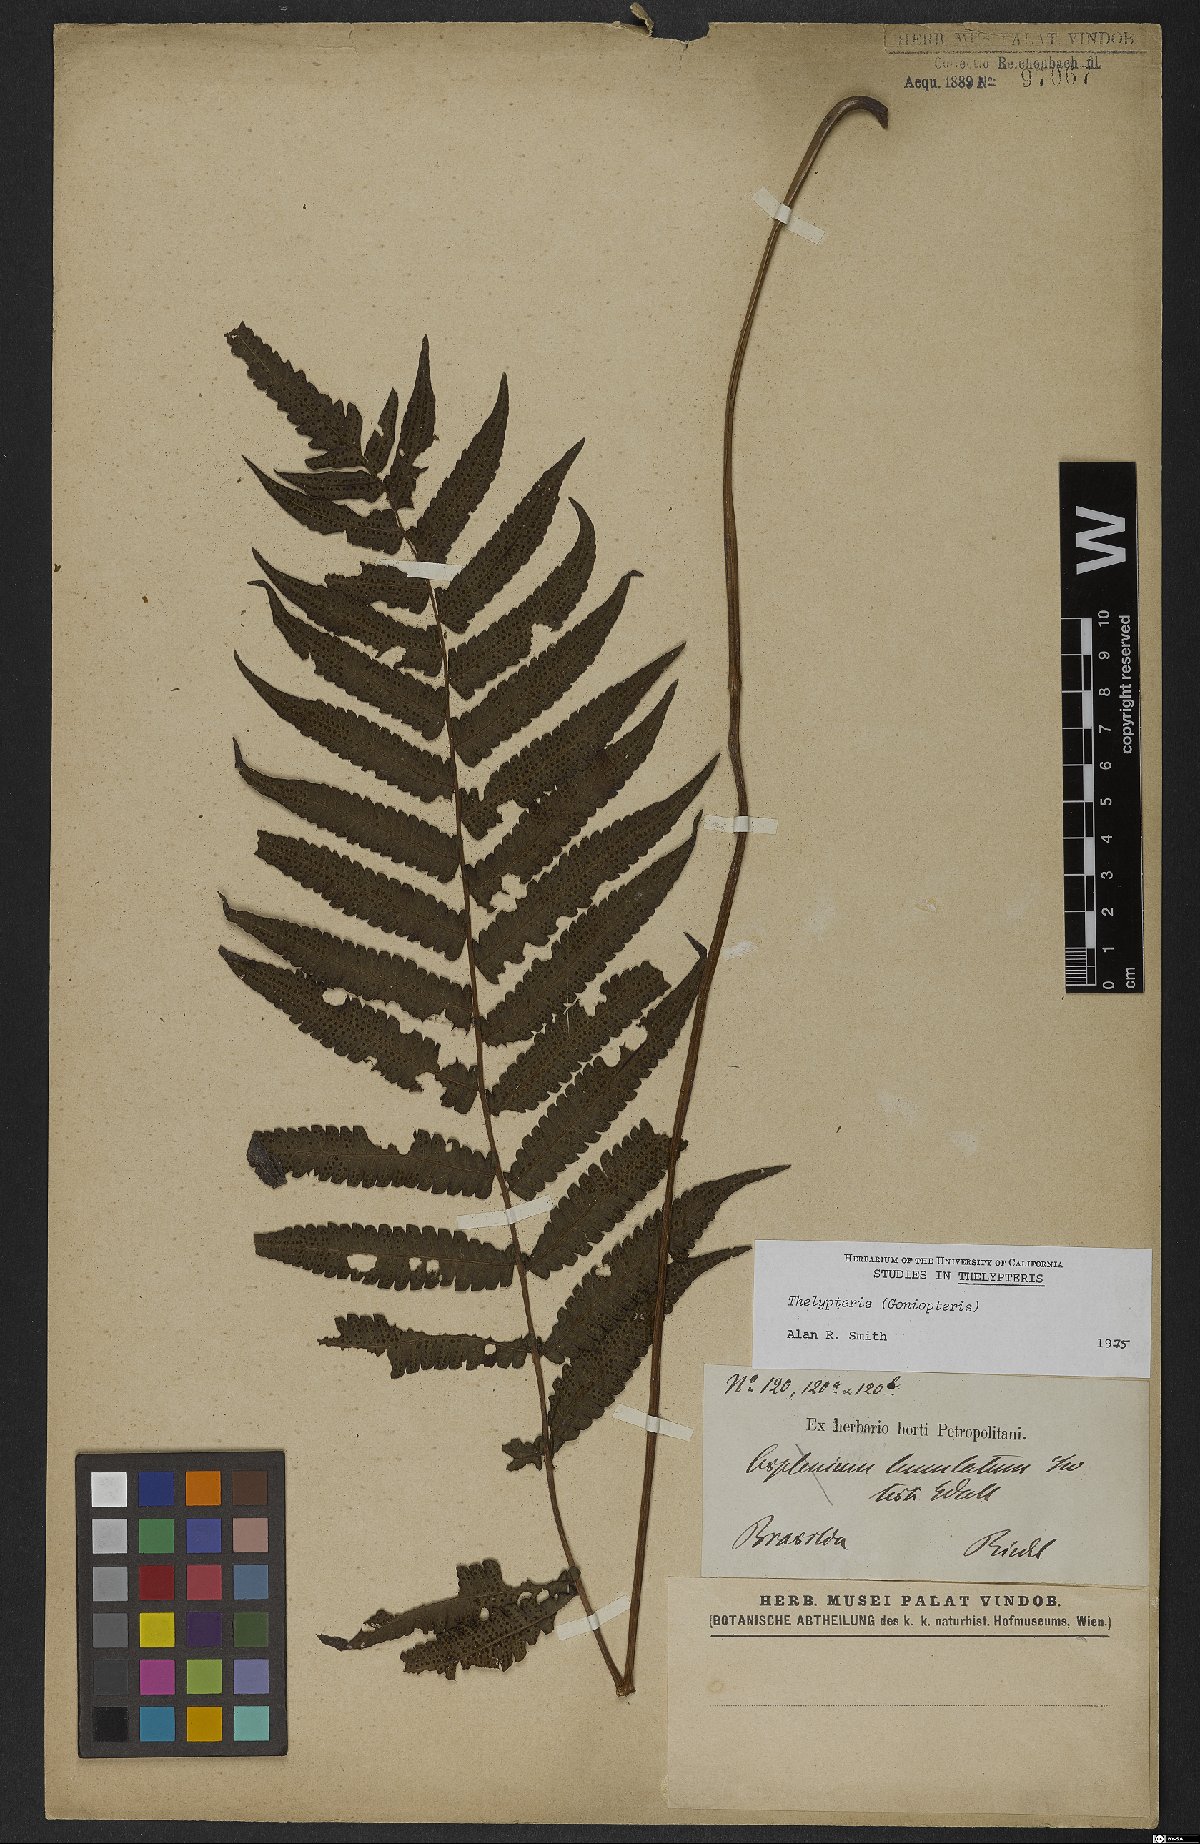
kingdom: Plantae
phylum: Tracheophyta
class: Polypodiopsida
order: Polypodiales
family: Thelypteridaceae
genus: Thelypteris
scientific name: Thelypteris
